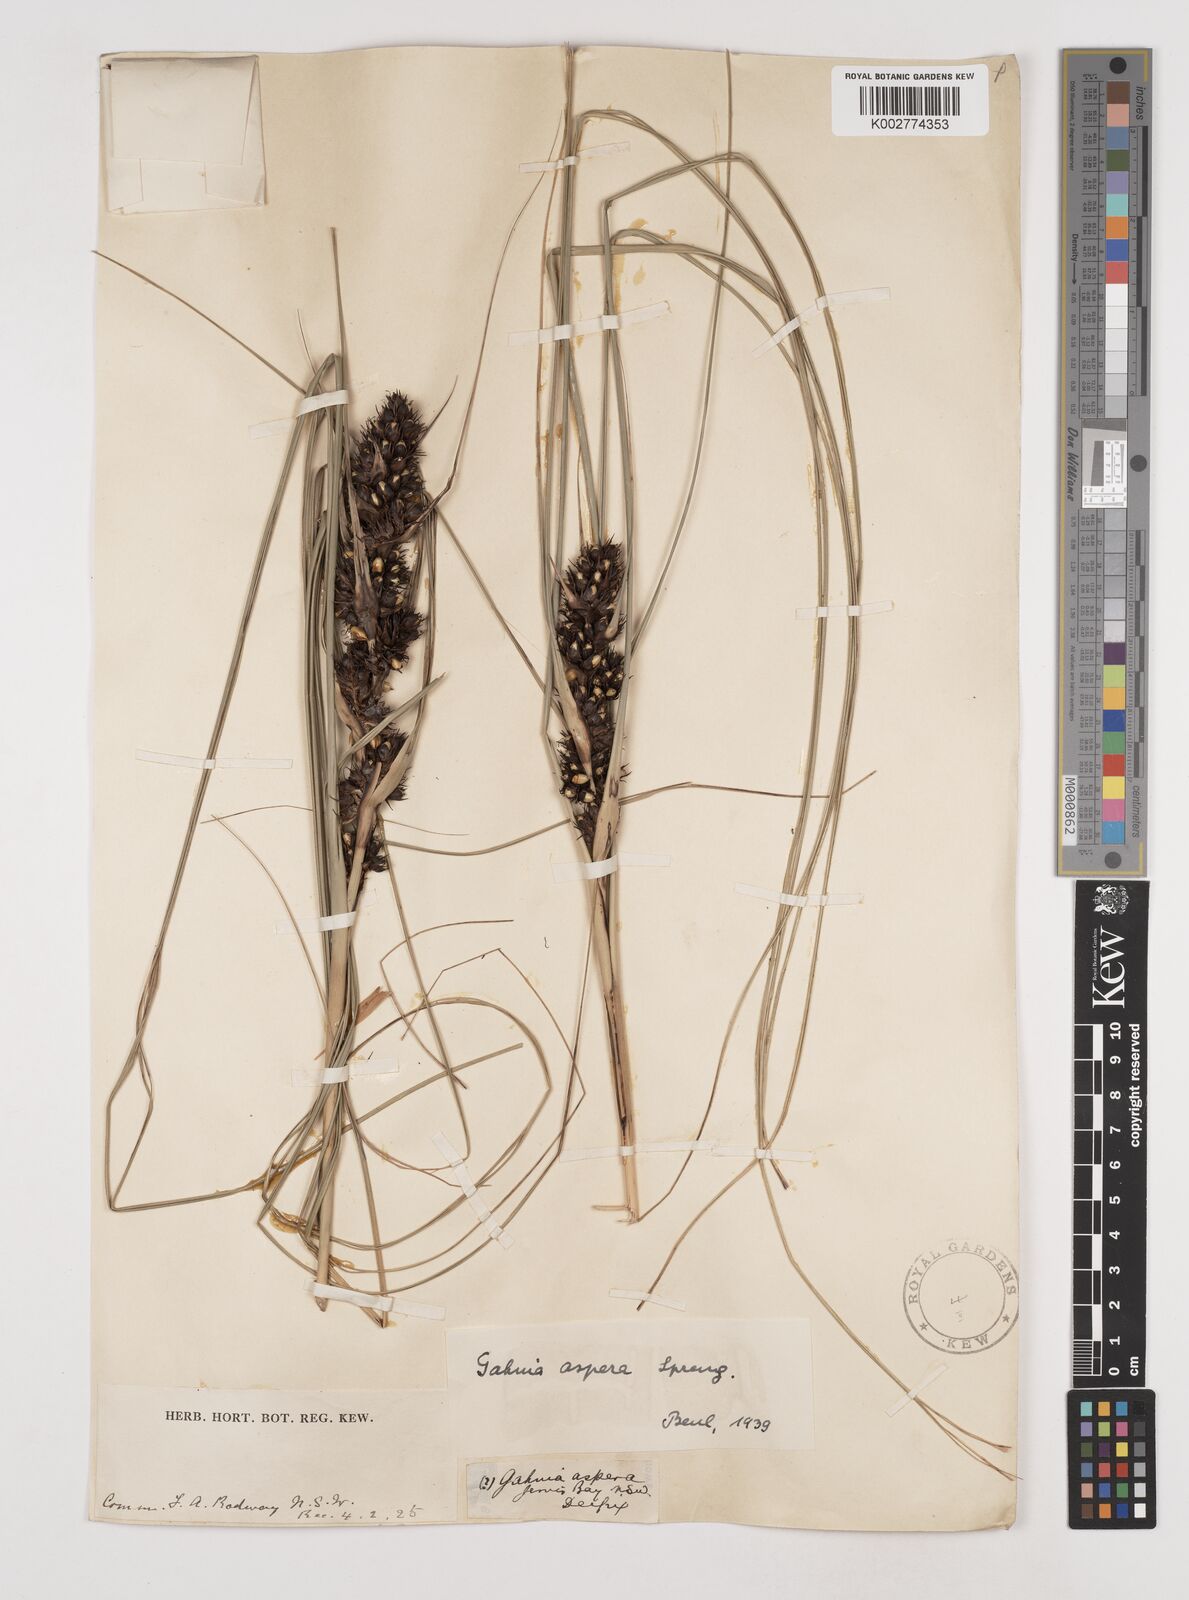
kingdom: Plantae
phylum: Tracheophyta
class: Liliopsida
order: Poales
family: Cyperaceae
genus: Gahnia
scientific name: Gahnia aspera
